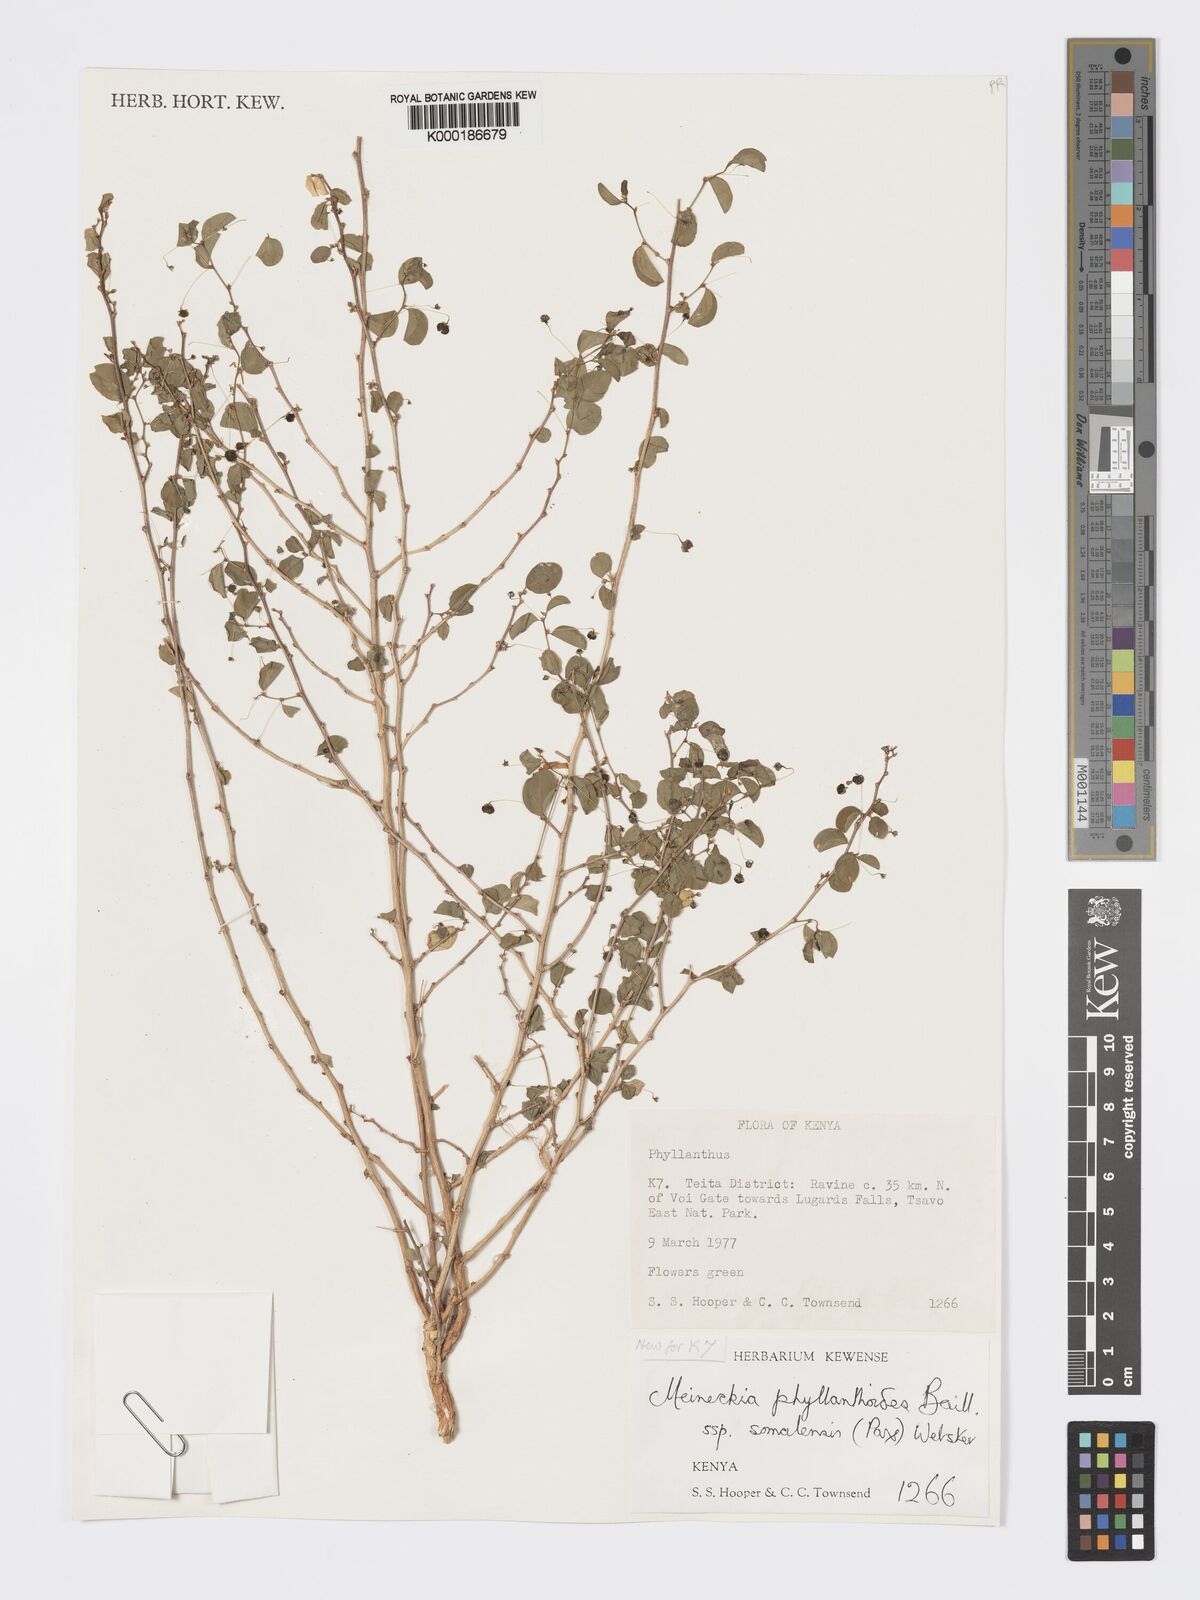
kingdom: Plantae
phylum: Tracheophyta
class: Magnoliopsida
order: Malpighiales
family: Phyllanthaceae
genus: Meineckia
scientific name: Meineckia phyllanthoides
